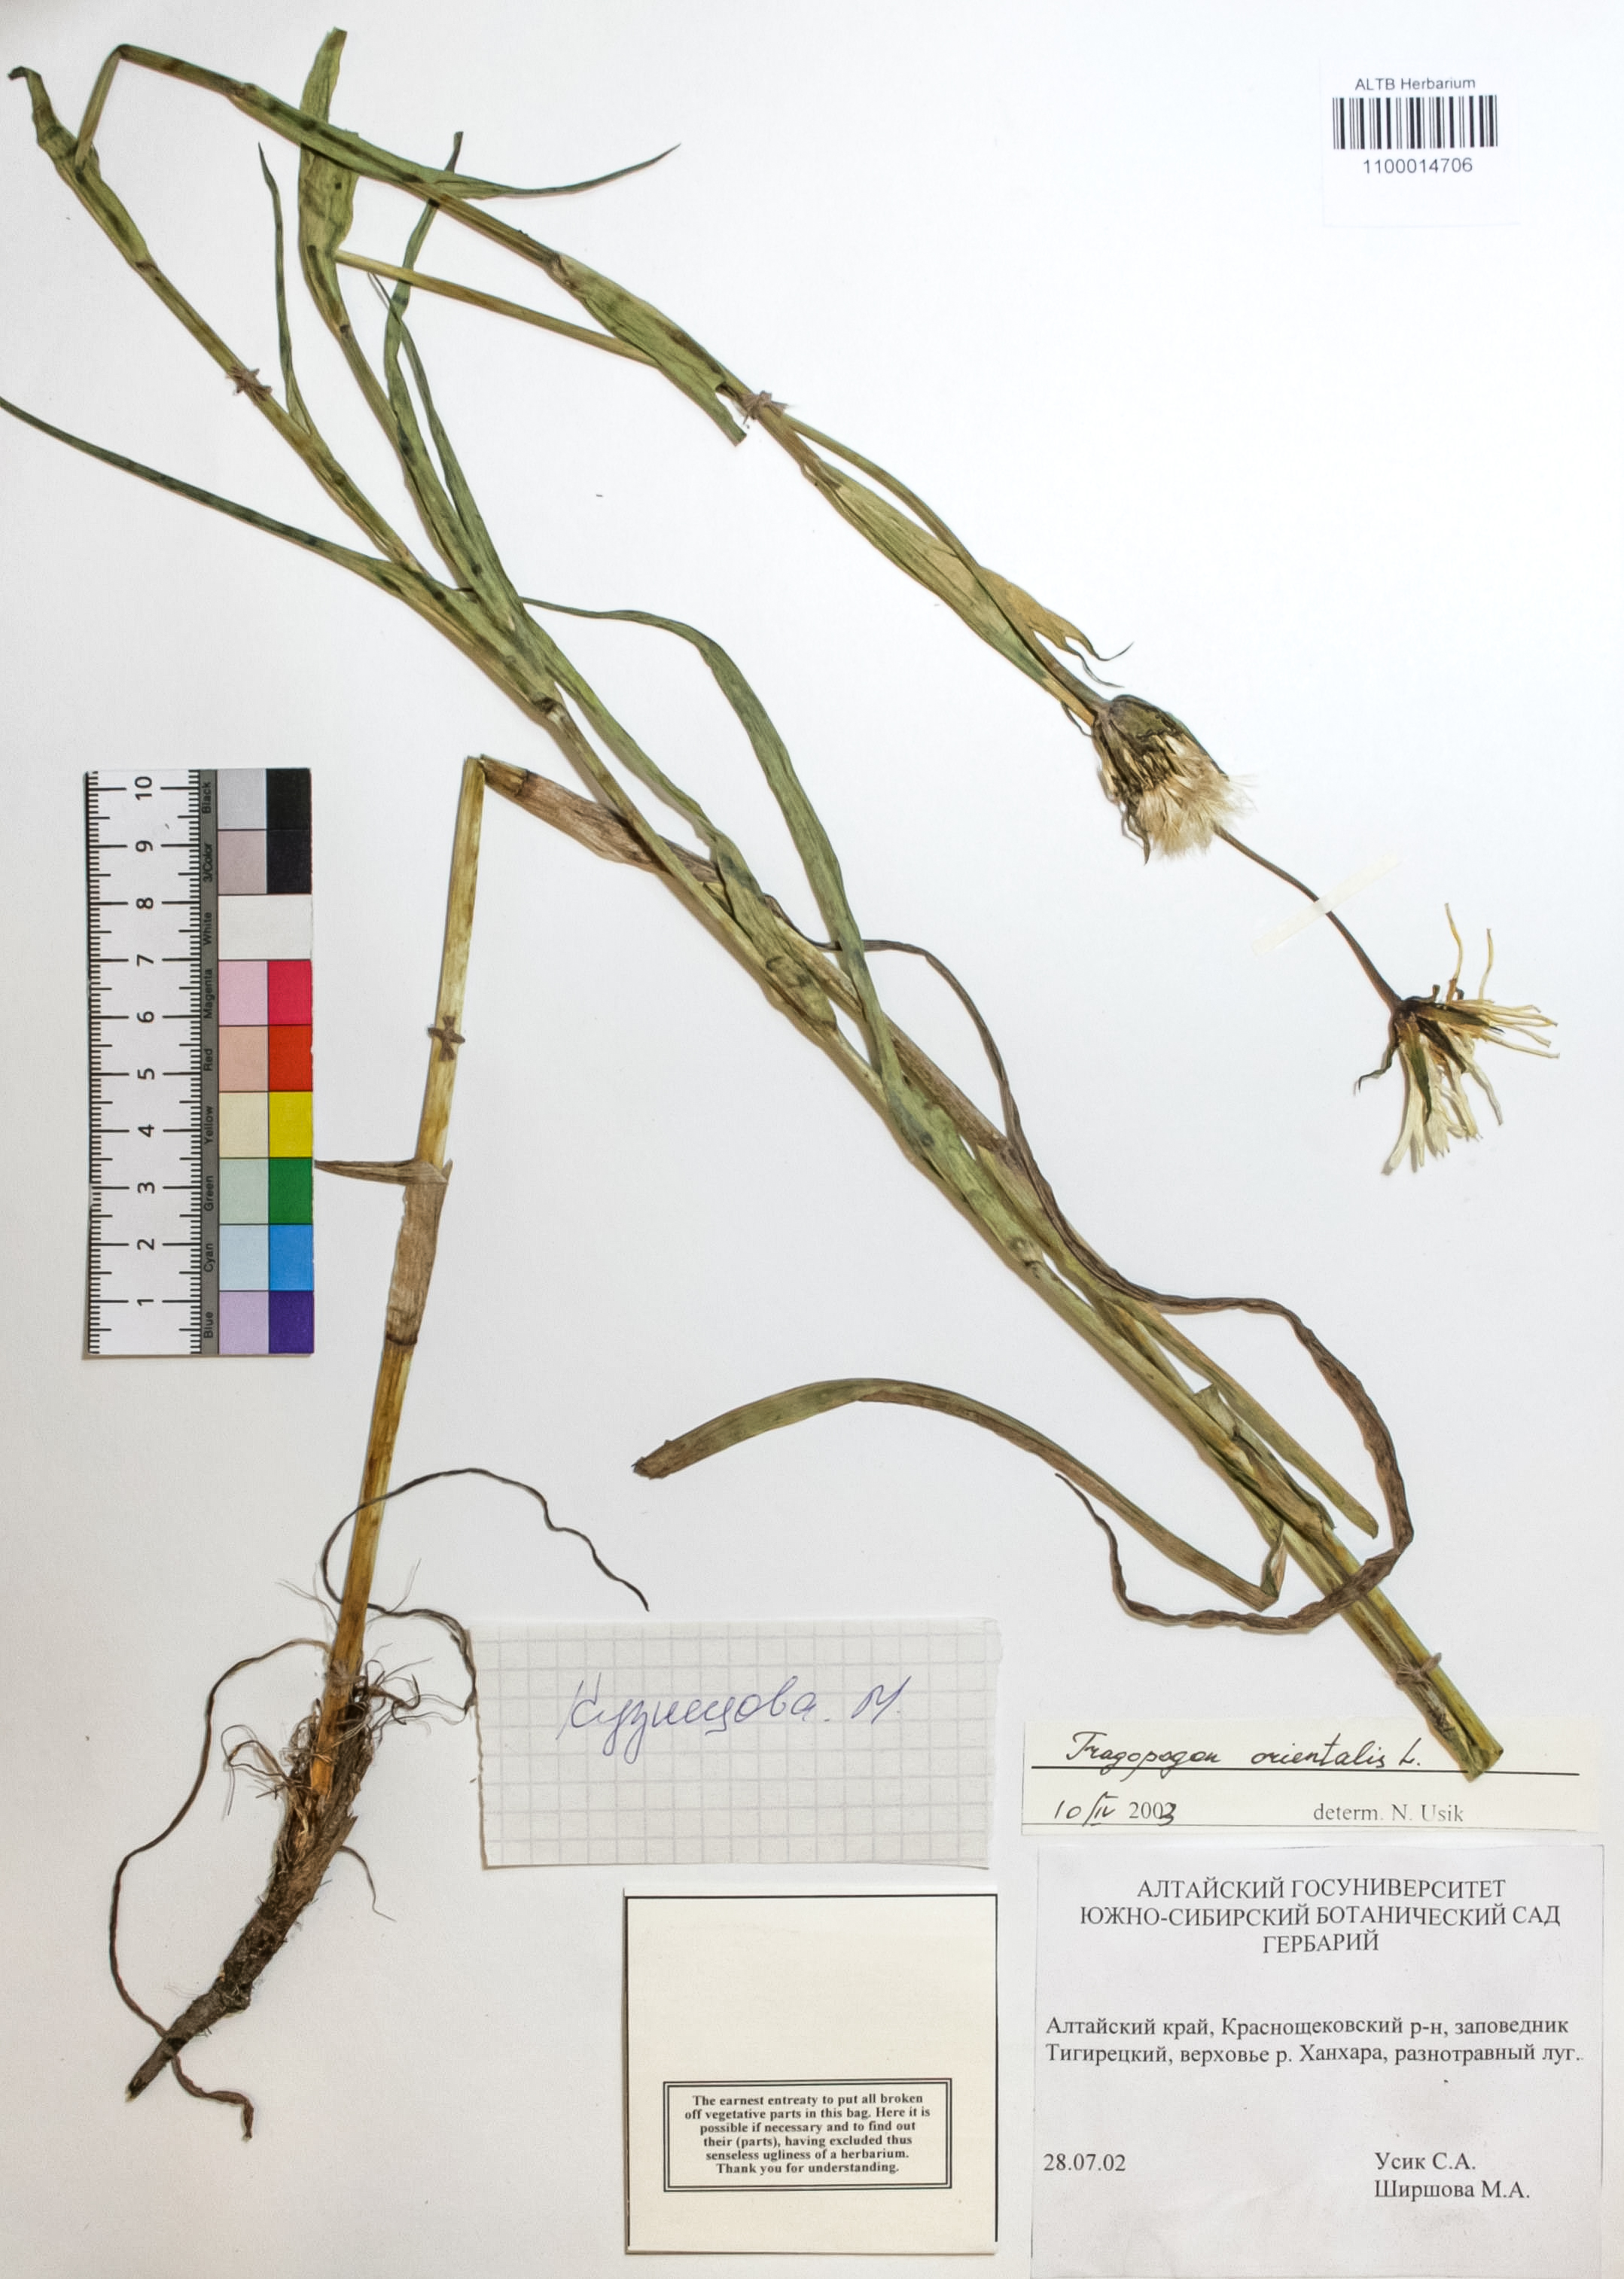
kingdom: Plantae
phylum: Tracheophyta
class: Magnoliopsida
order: Asterales
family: Asteraceae
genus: Tragopogon
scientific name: Tragopogon orientalis
